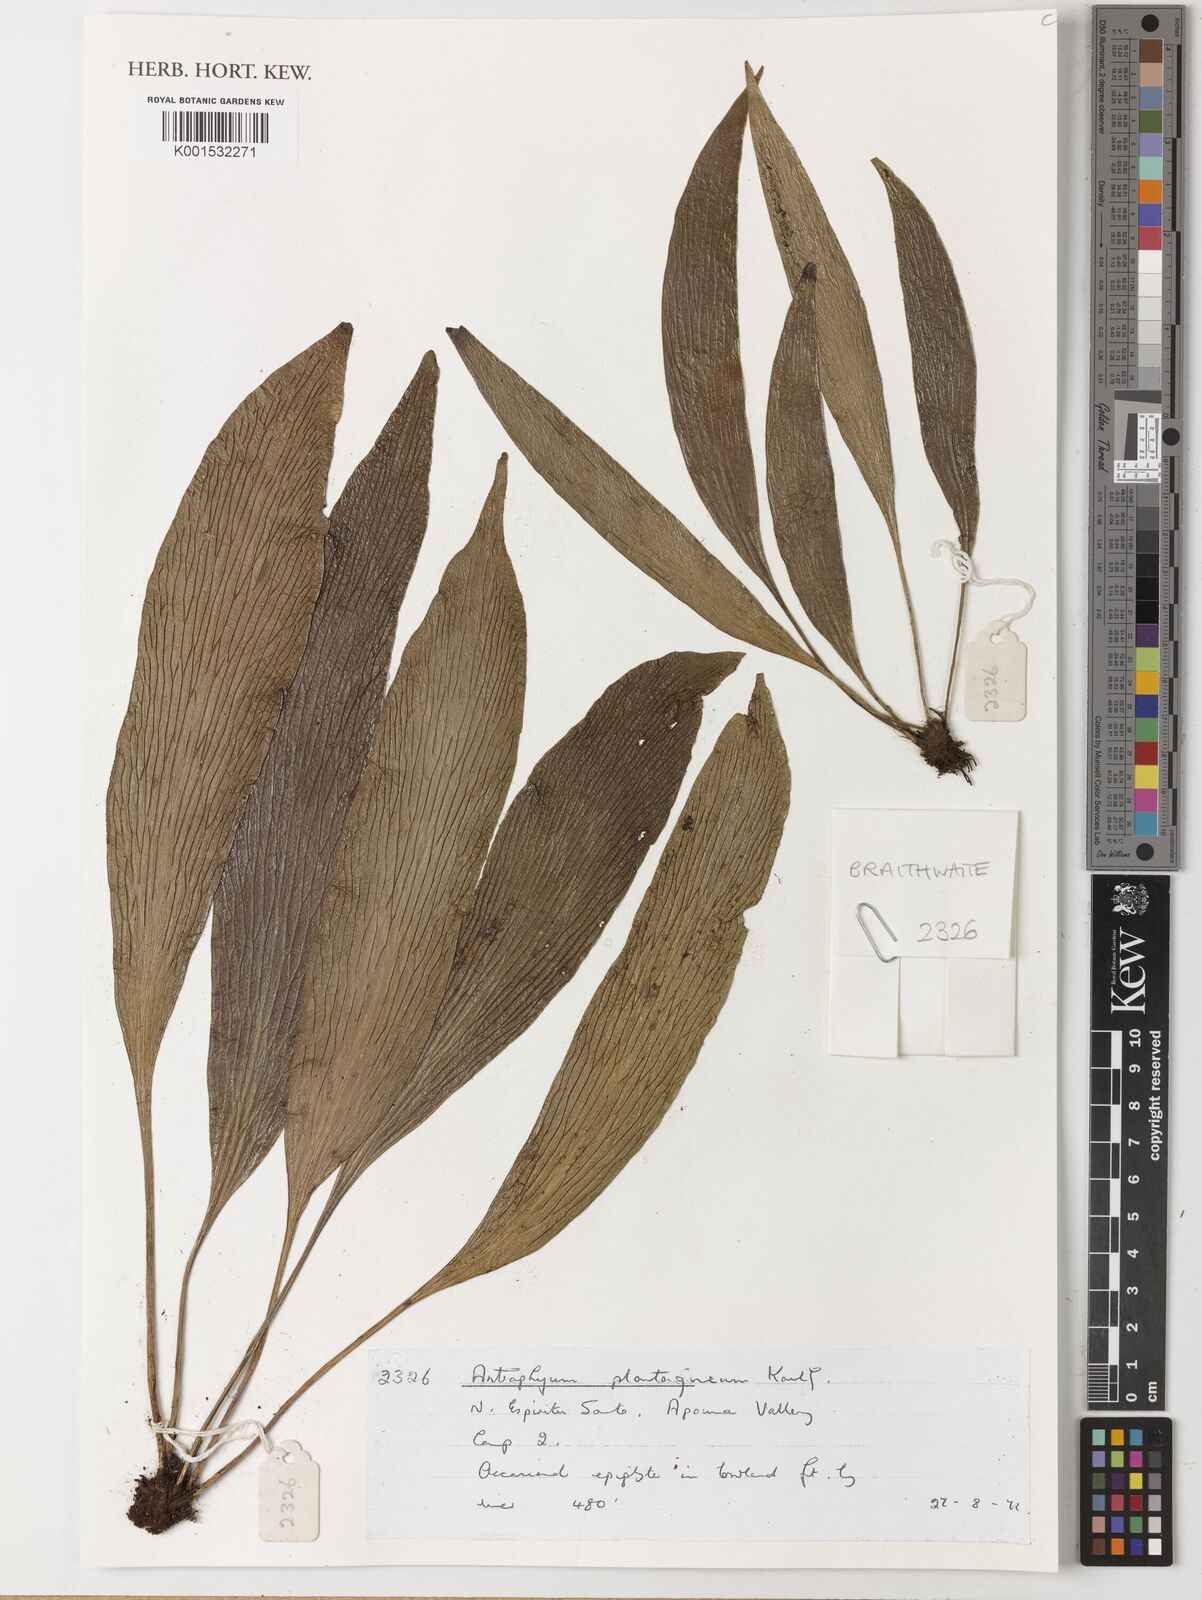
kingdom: Plantae
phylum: Tracheophyta
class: Polypodiopsida
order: Polypodiales
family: Pteridaceae
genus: Antrophyum
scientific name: Antrophyum plantagineum
